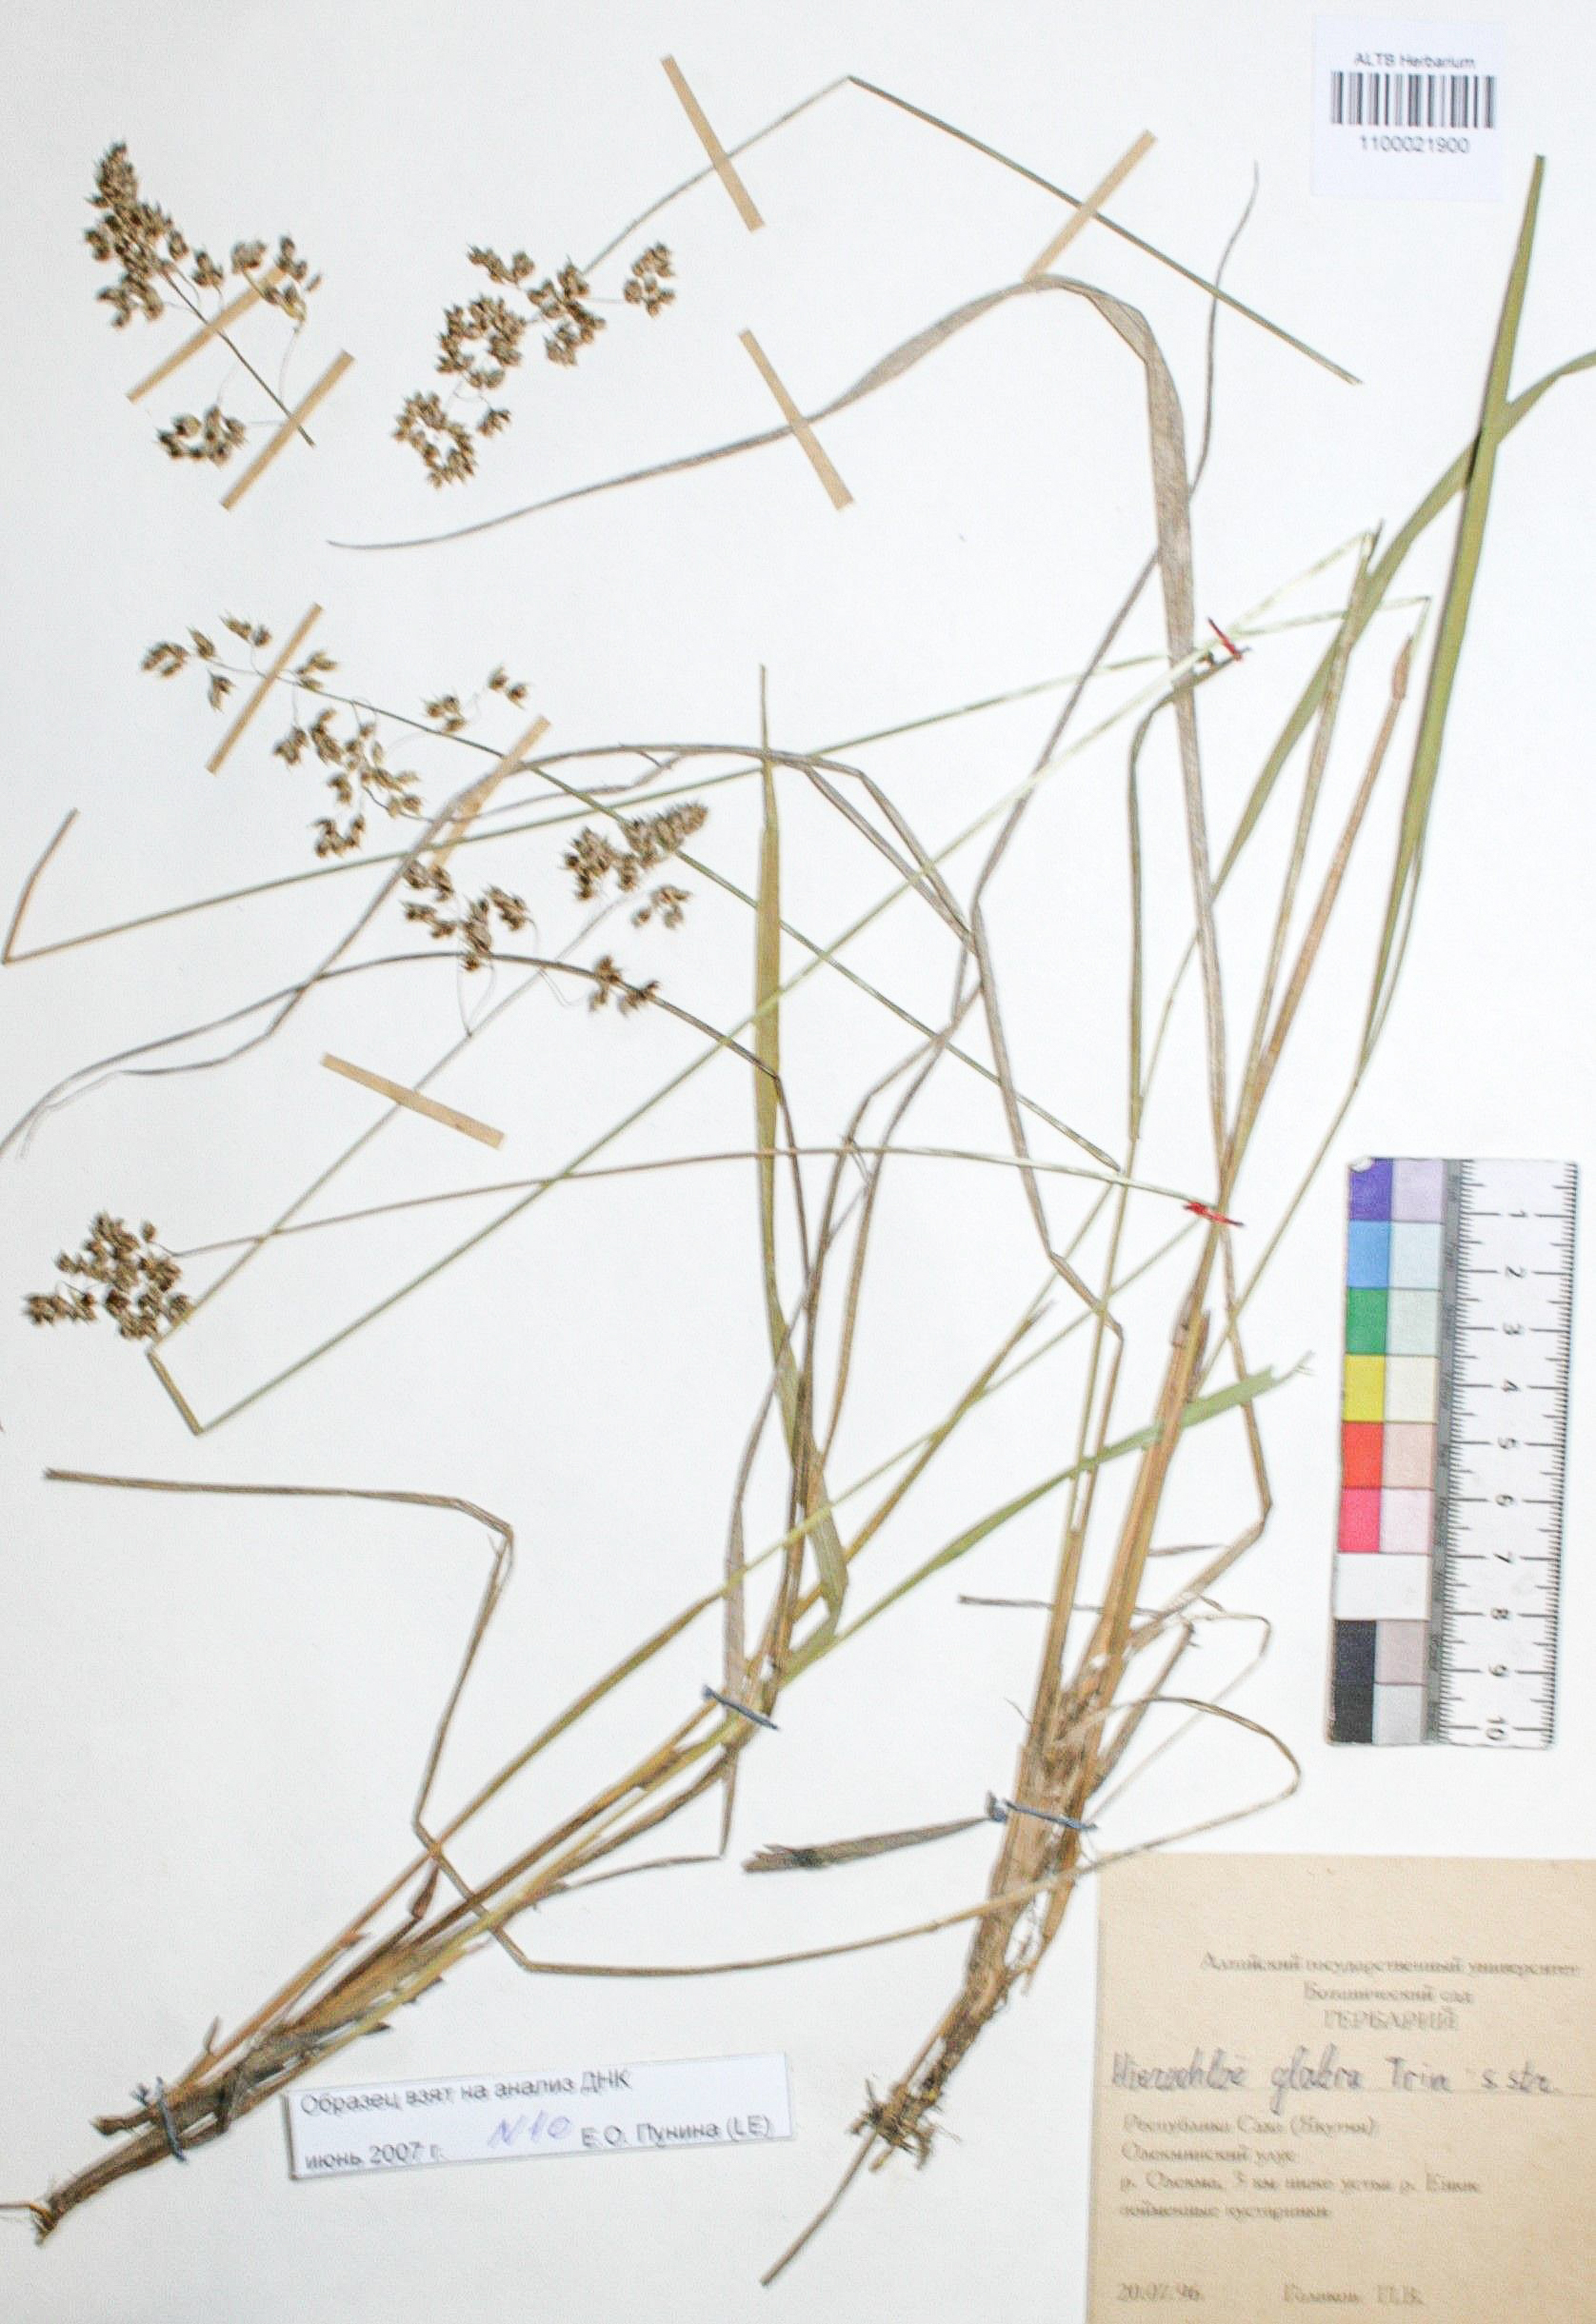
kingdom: Plantae
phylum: Tracheophyta
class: Liliopsida
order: Poales
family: Poaceae
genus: Anthoxanthum
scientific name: Anthoxanthum glabrum
